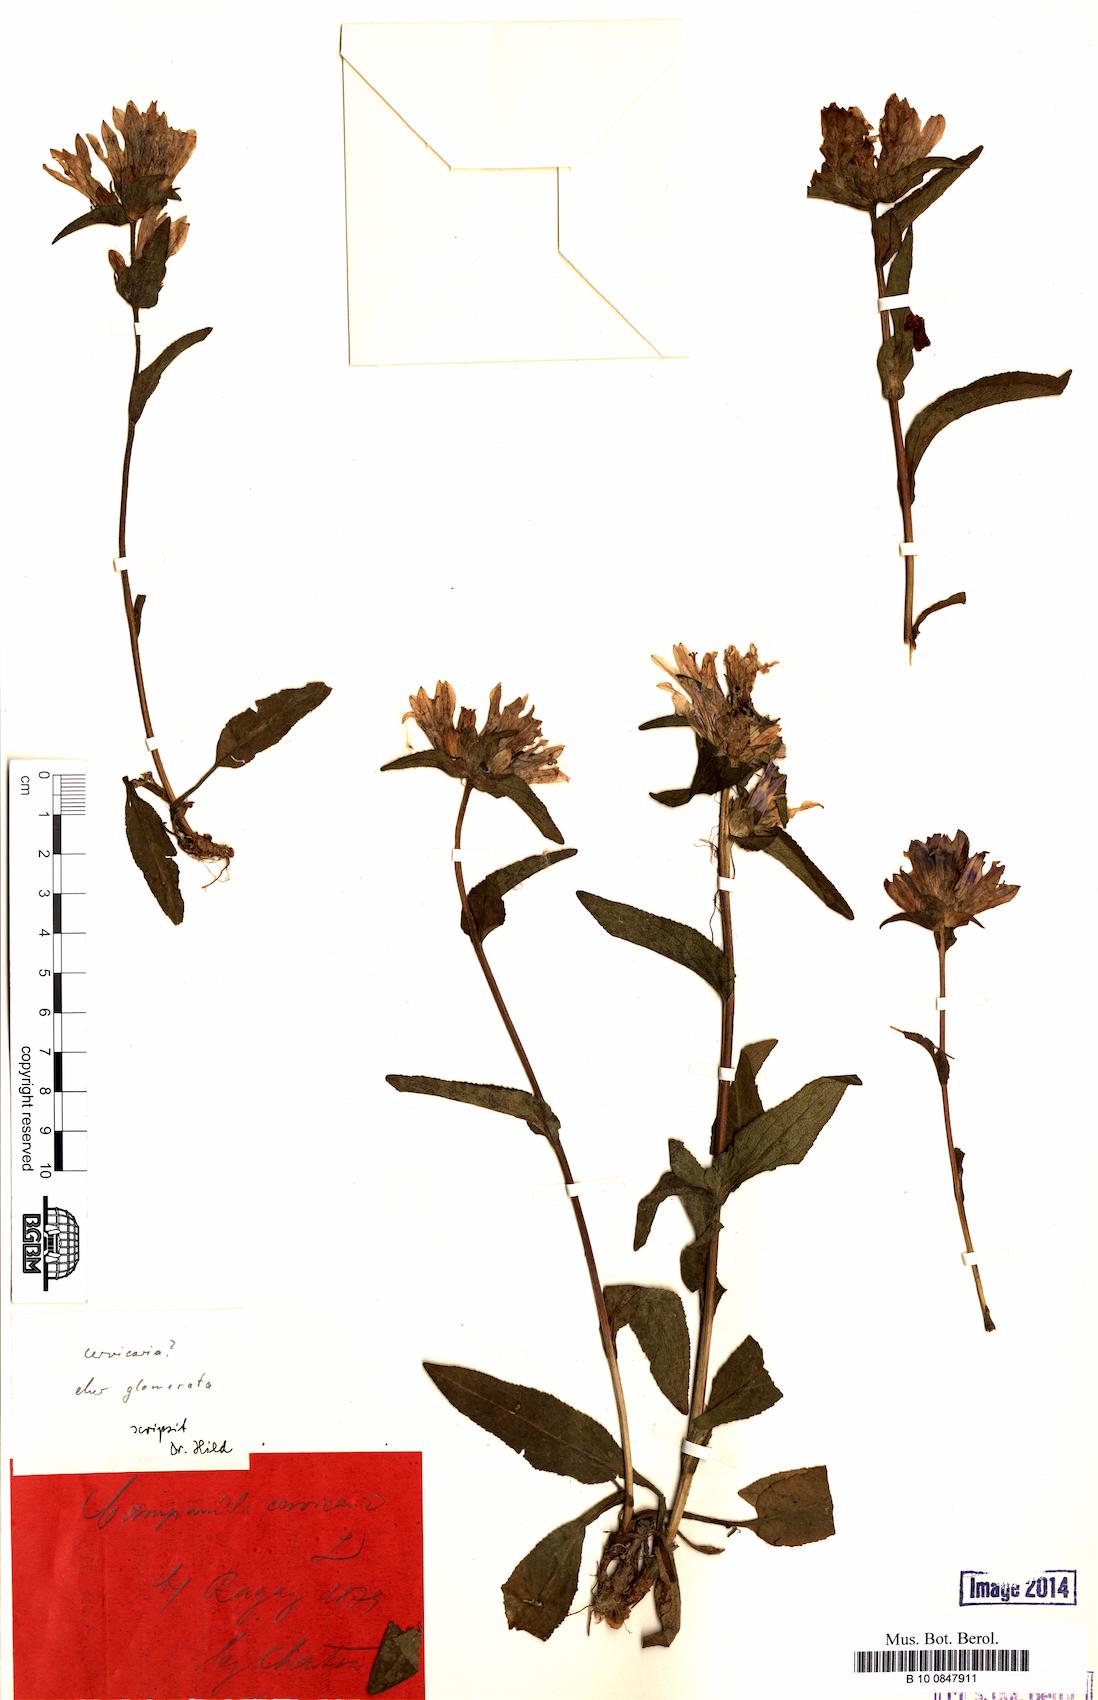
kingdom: Plantae
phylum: Tracheophyta
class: Magnoliopsida
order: Asterales
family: Campanulaceae
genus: Campanula
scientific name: Campanula glomerata
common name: Clustered bellflower
